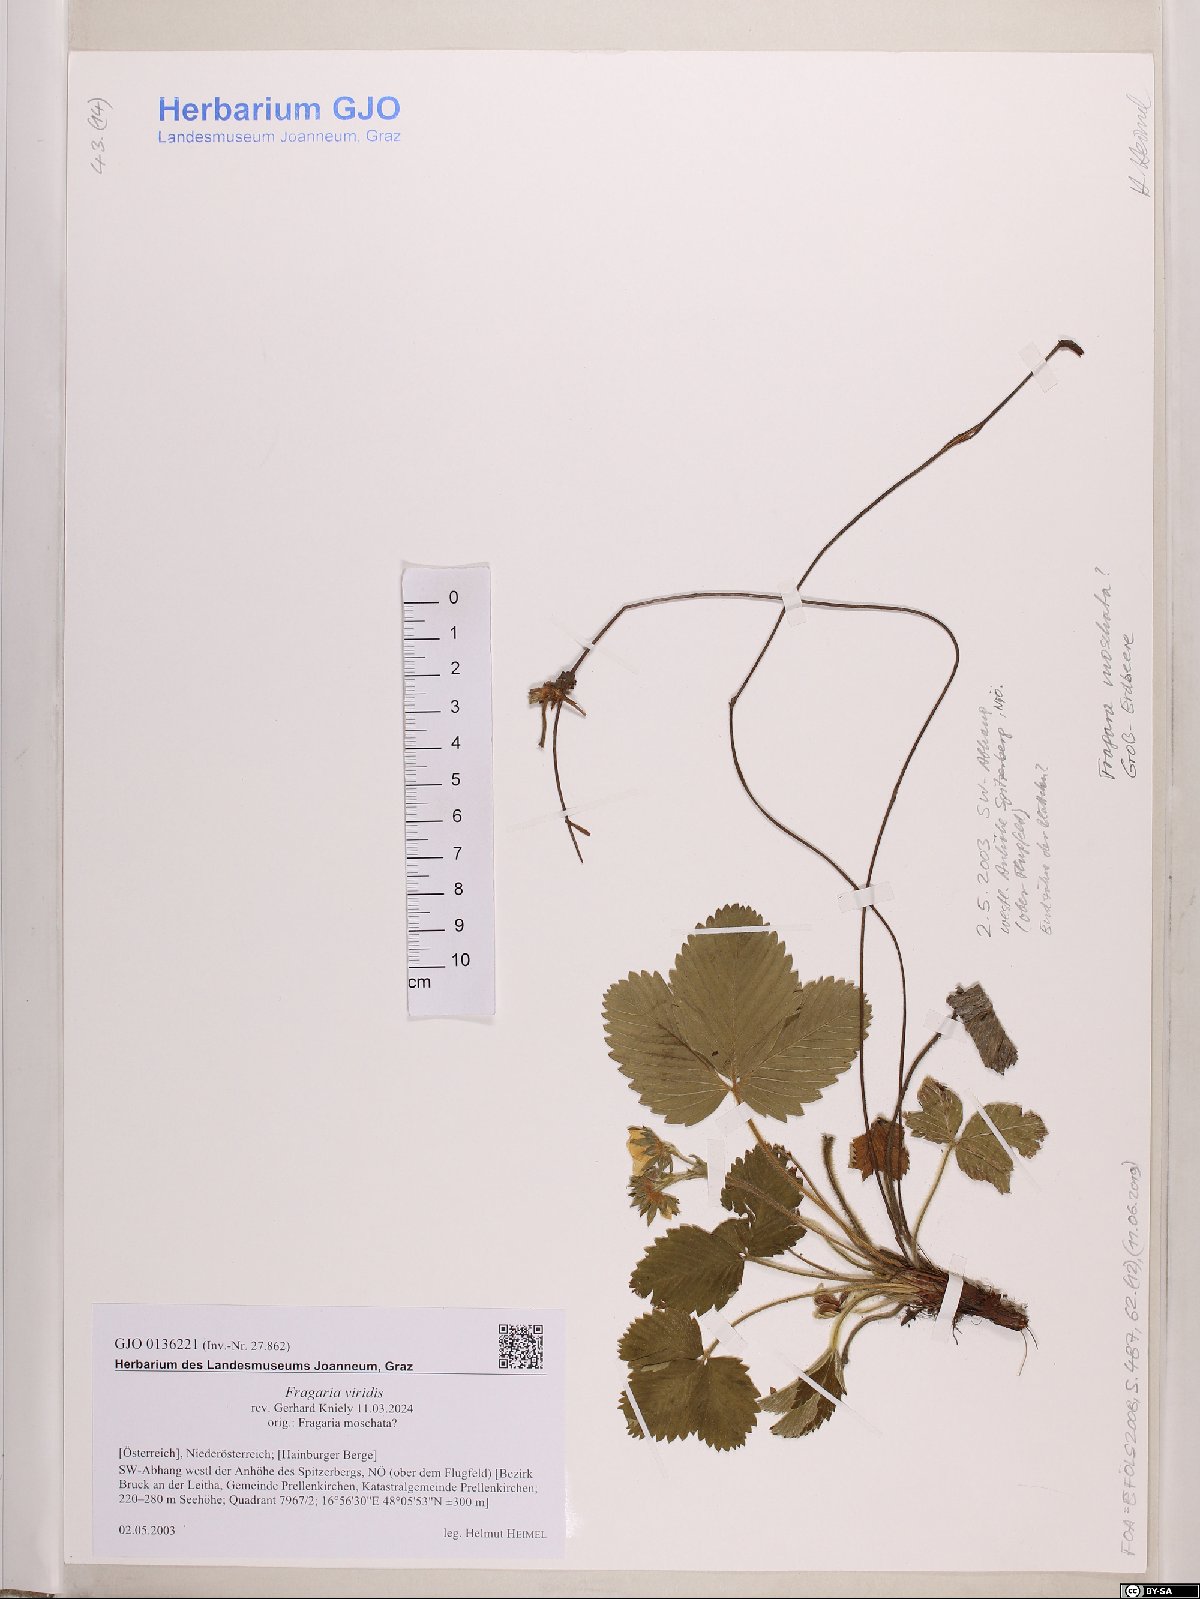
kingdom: Plantae
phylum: Tracheophyta
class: Magnoliopsida
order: Rosales
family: Rosaceae
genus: Fragaria
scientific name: Fragaria viridis
